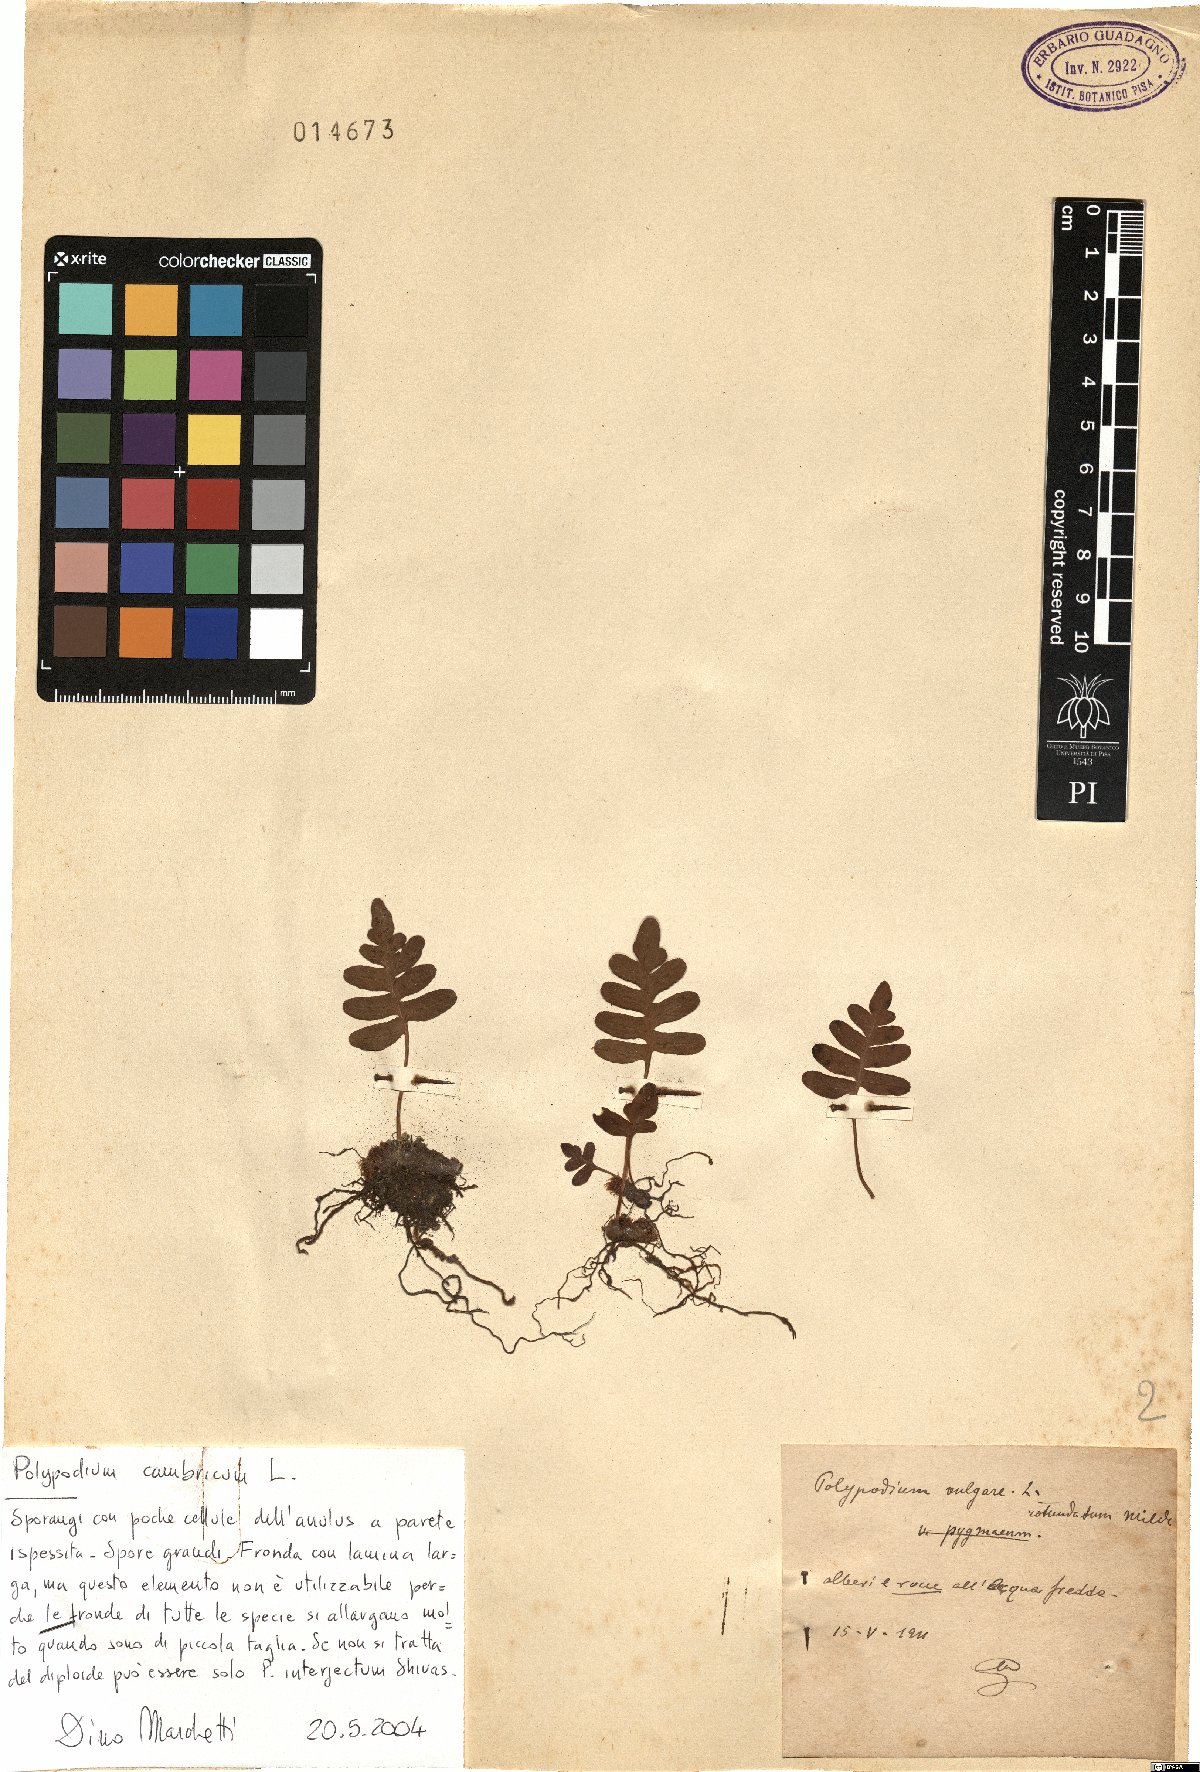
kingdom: Plantae
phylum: Tracheophyta
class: Polypodiopsida
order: Polypodiales
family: Polypodiaceae
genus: Polypodium
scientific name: Polypodium cambricum
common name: Southern polypody
